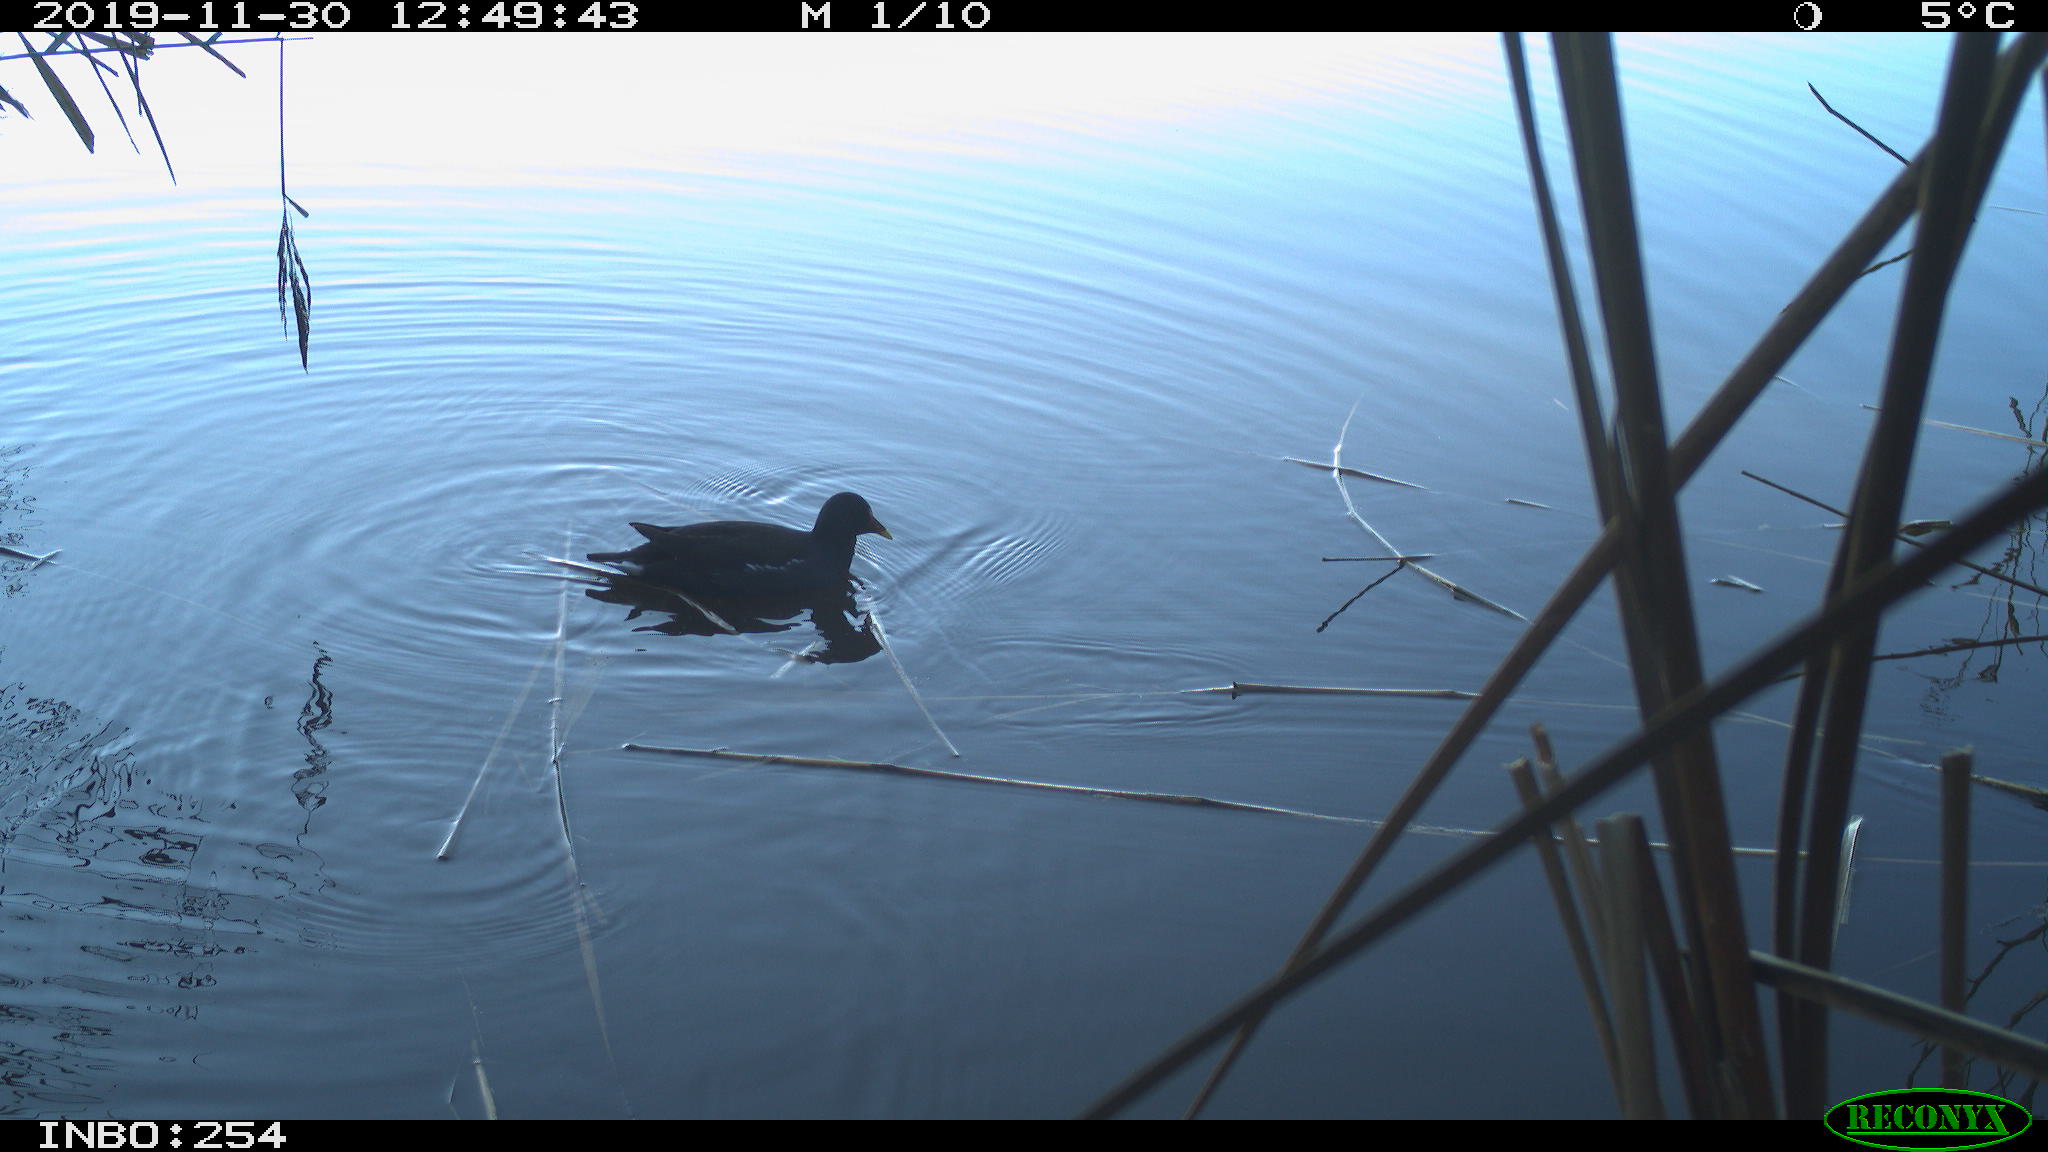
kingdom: Animalia
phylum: Chordata
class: Aves
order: Gruiformes
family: Rallidae
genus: Gallinula
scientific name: Gallinula chloropus
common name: Common moorhen
